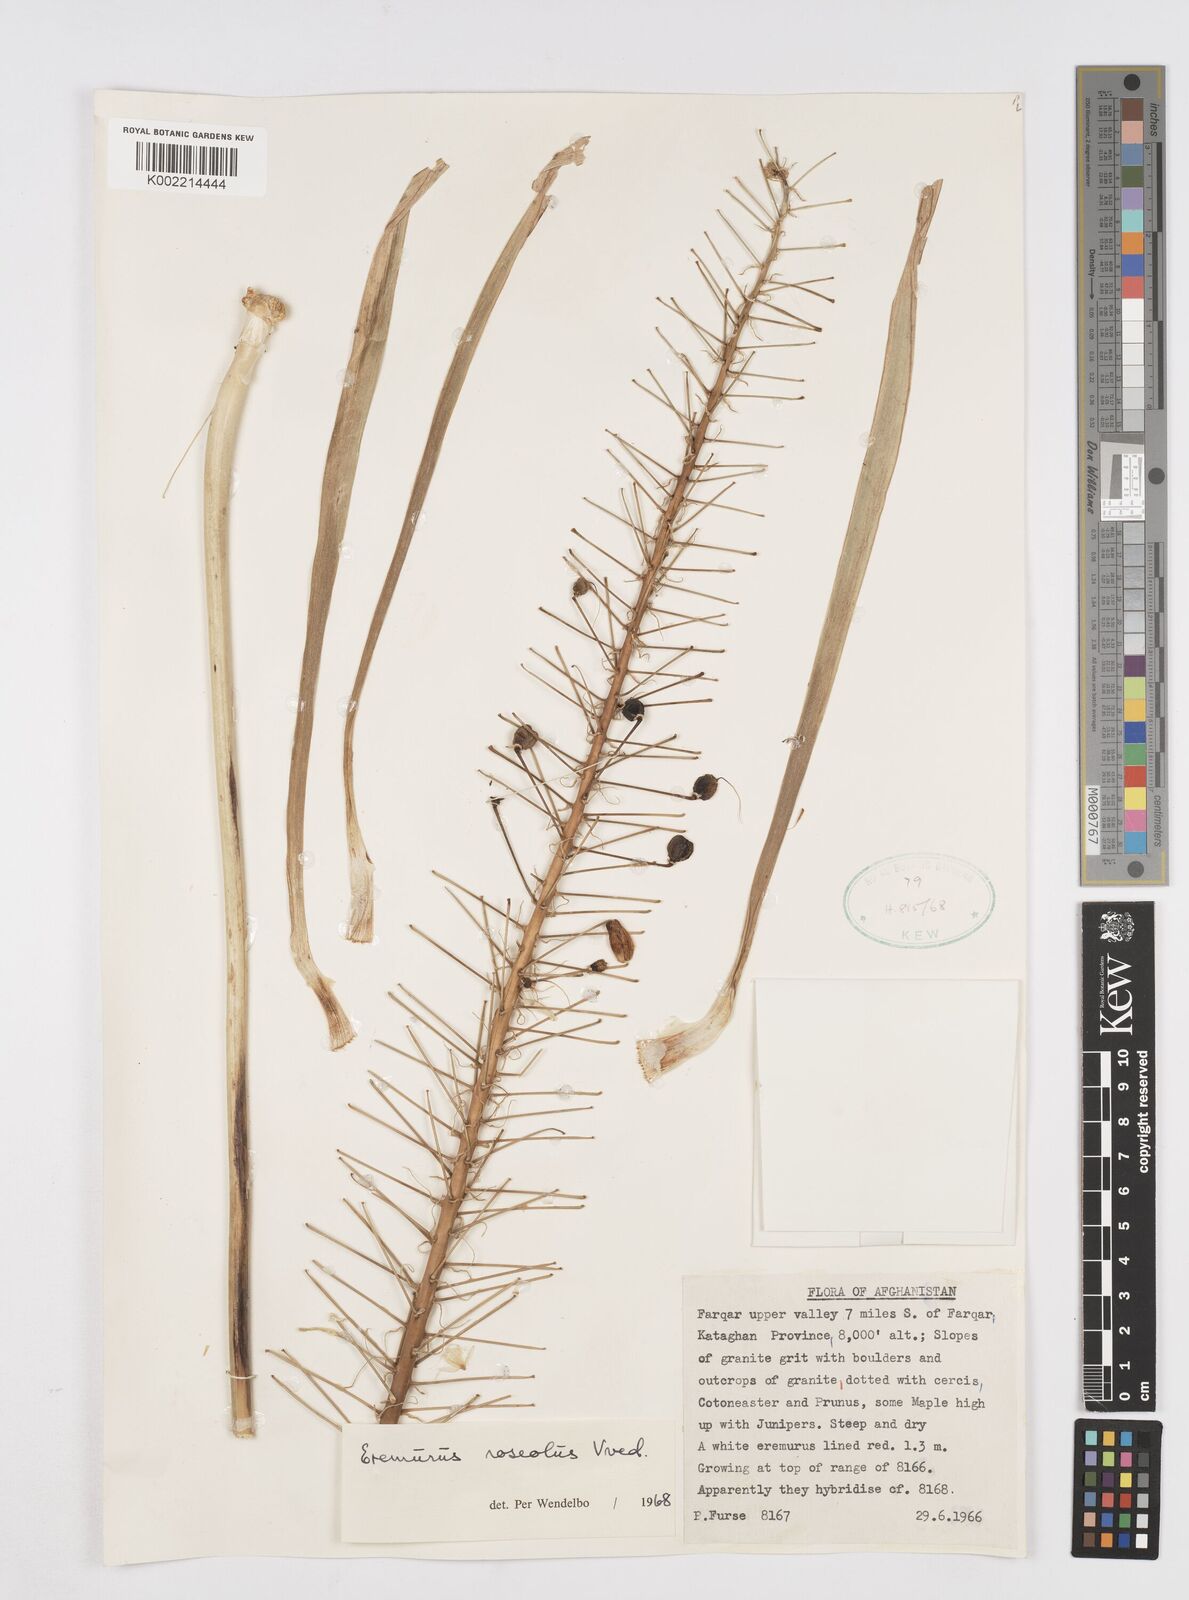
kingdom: Plantae
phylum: Tracheophyta
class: Liliopsida
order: Asparagales
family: Asphodelaceae
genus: Eremurus
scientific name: Eremurus roseolus
